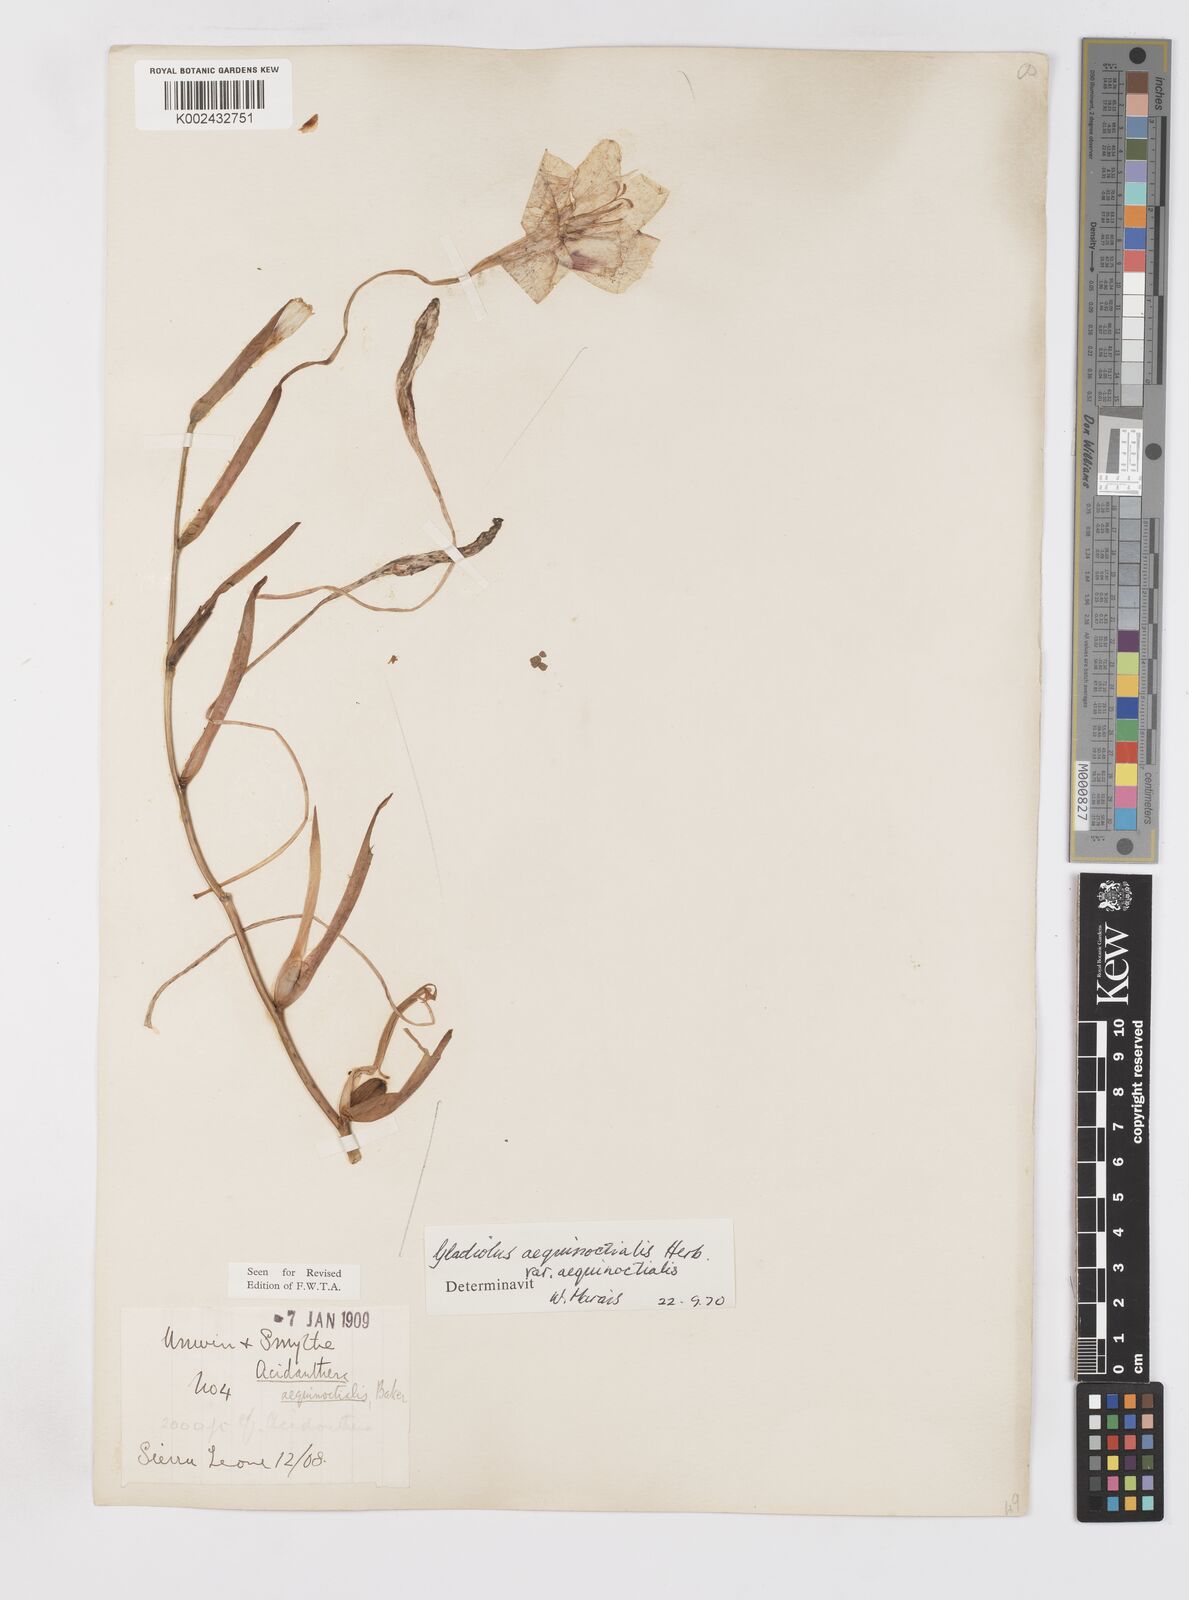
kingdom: Plantae
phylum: Tracheophyta
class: Liliopsida
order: Asparagales
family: Iridaceae
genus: Gladiolus
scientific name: Gladiolus aequinoctialis
